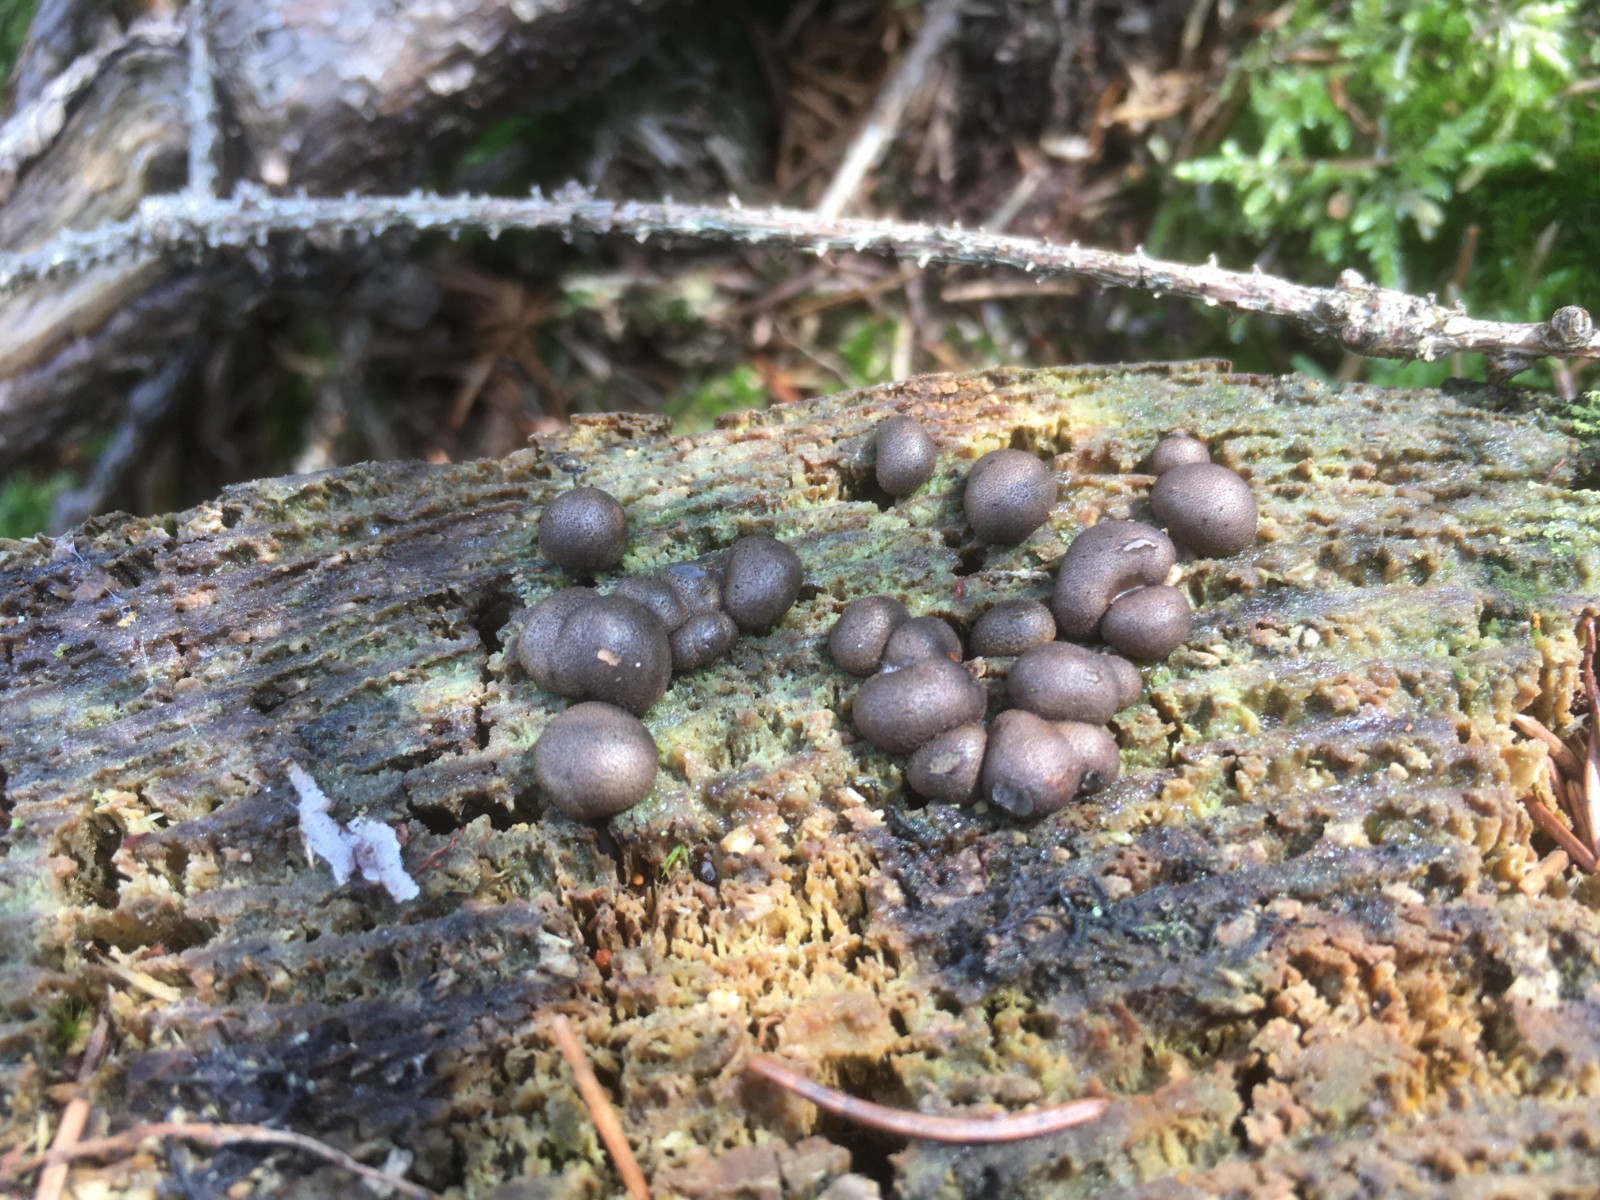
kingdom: Protozoa
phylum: Mycetozoa
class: Myxomycetes
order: Cribrariales
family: Tubiferaceae
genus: Lycogala
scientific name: Lycogala epidendrum
